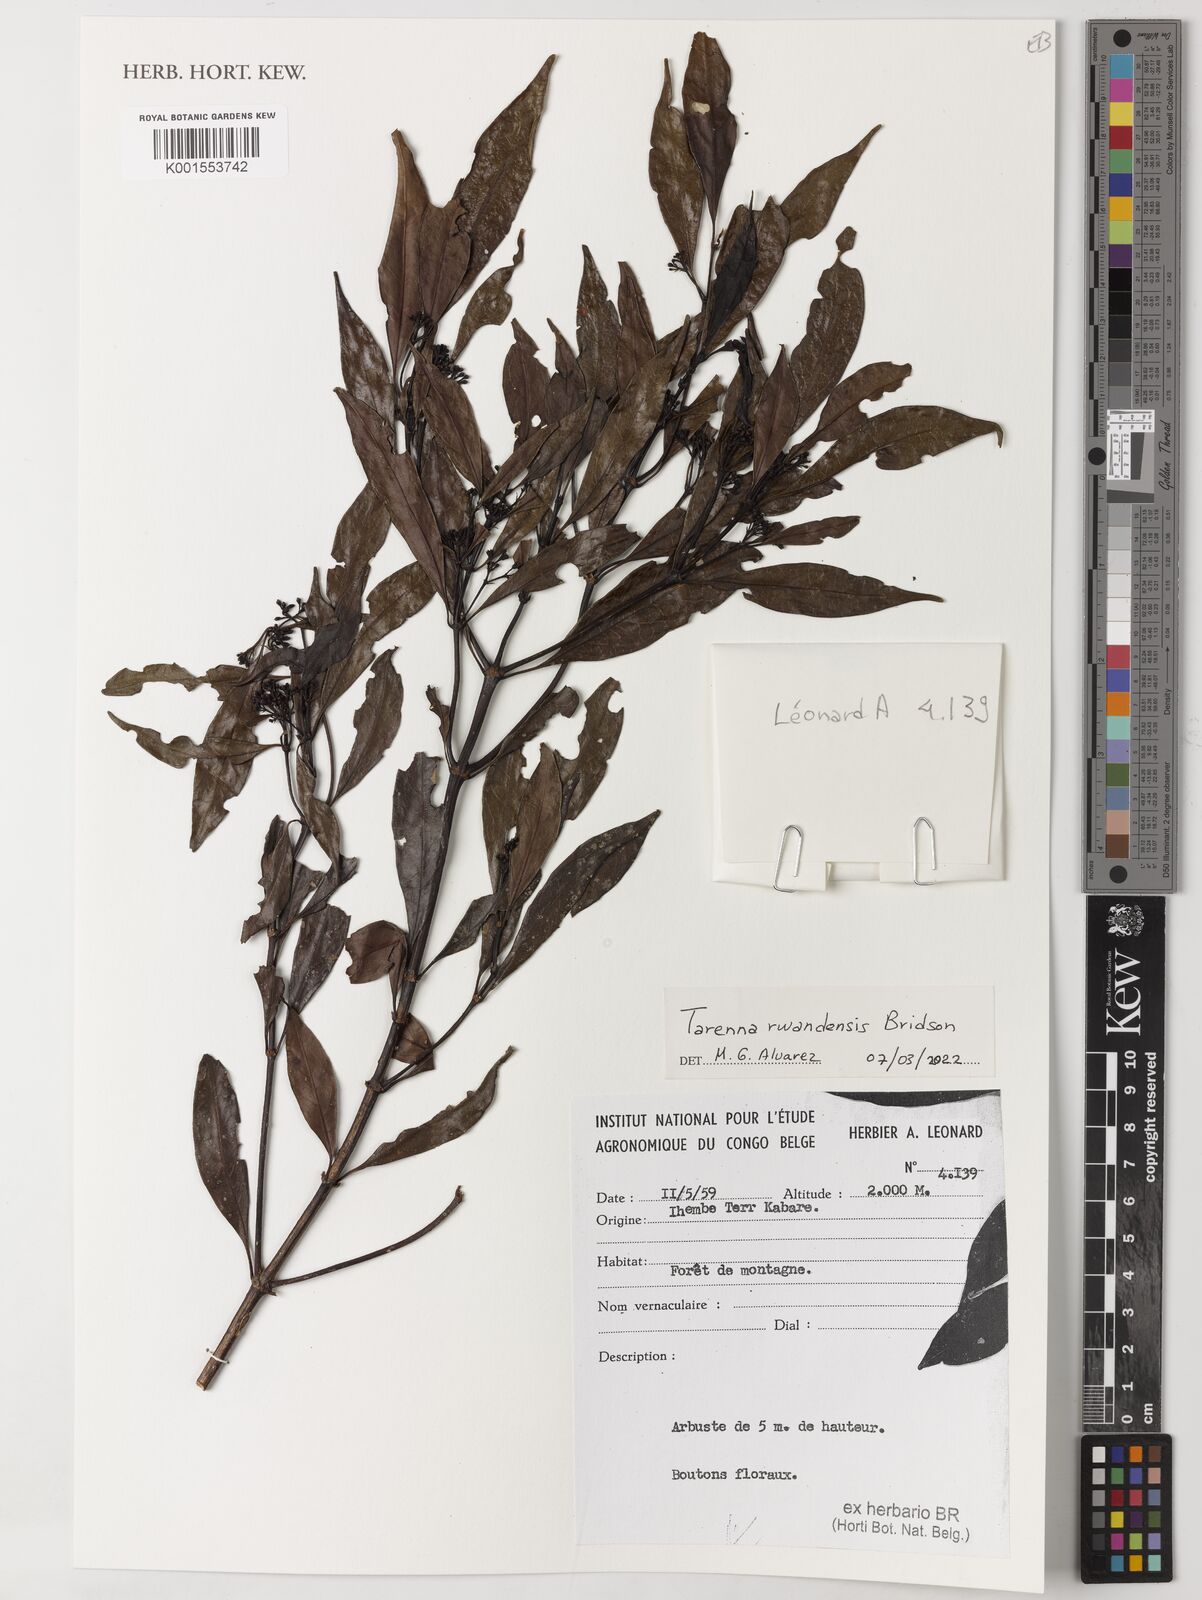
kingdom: Plantae
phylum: Tracheophyta
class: Magnoliopsida
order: Gentianales
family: Rubiaceae
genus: Tarenna
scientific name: Tarenna rwandensis
